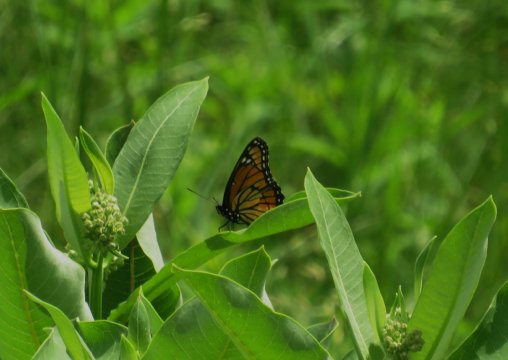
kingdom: Animalia
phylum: Arthropoda
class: Insecta
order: Lepidoptera
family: Nymphalidae
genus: Limenitis
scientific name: Limenitis archippus
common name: Viceroy
